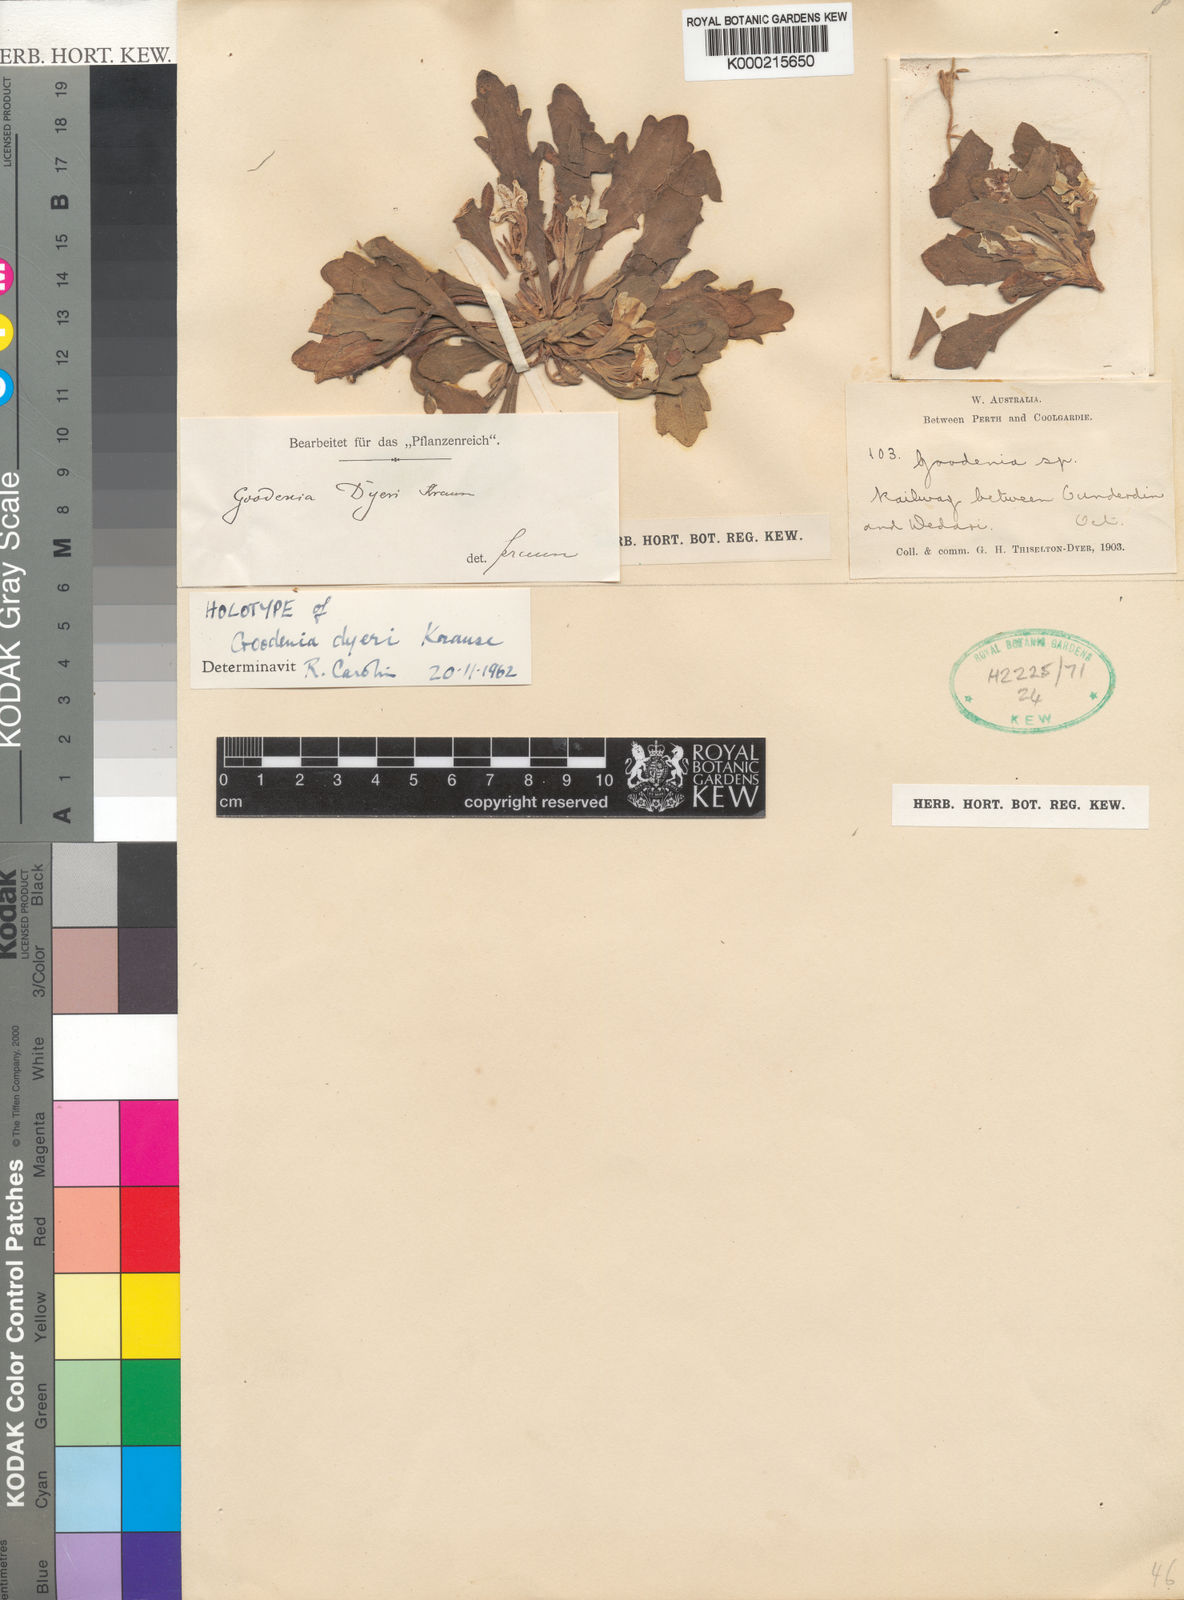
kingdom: Plantae
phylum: Tracheophyta
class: Magnoliopsida
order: Asterales
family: Goodeniaceae
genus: Goodenia
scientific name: Goodenia dyeri
